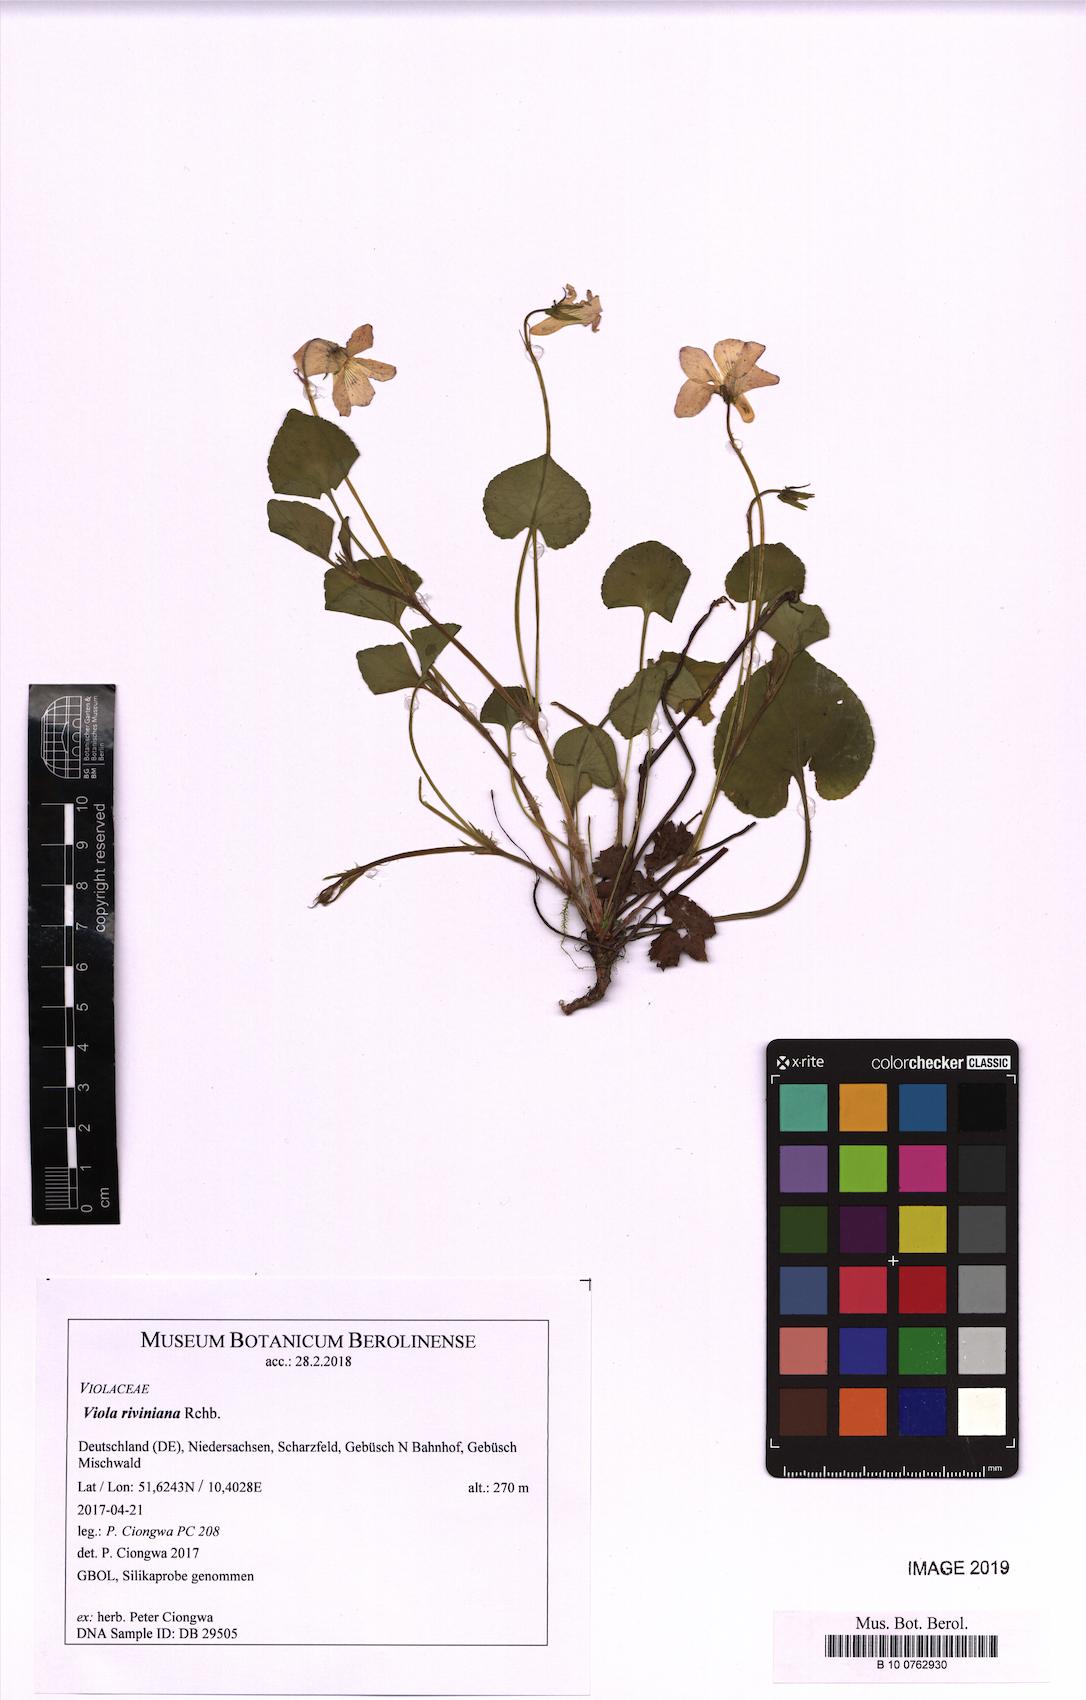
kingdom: Plantae
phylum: Tracheophyta
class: Magnoliopsida
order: Malpighiales
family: Violaceae
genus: Viola
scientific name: Viola riviniana
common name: Common dog-violet
